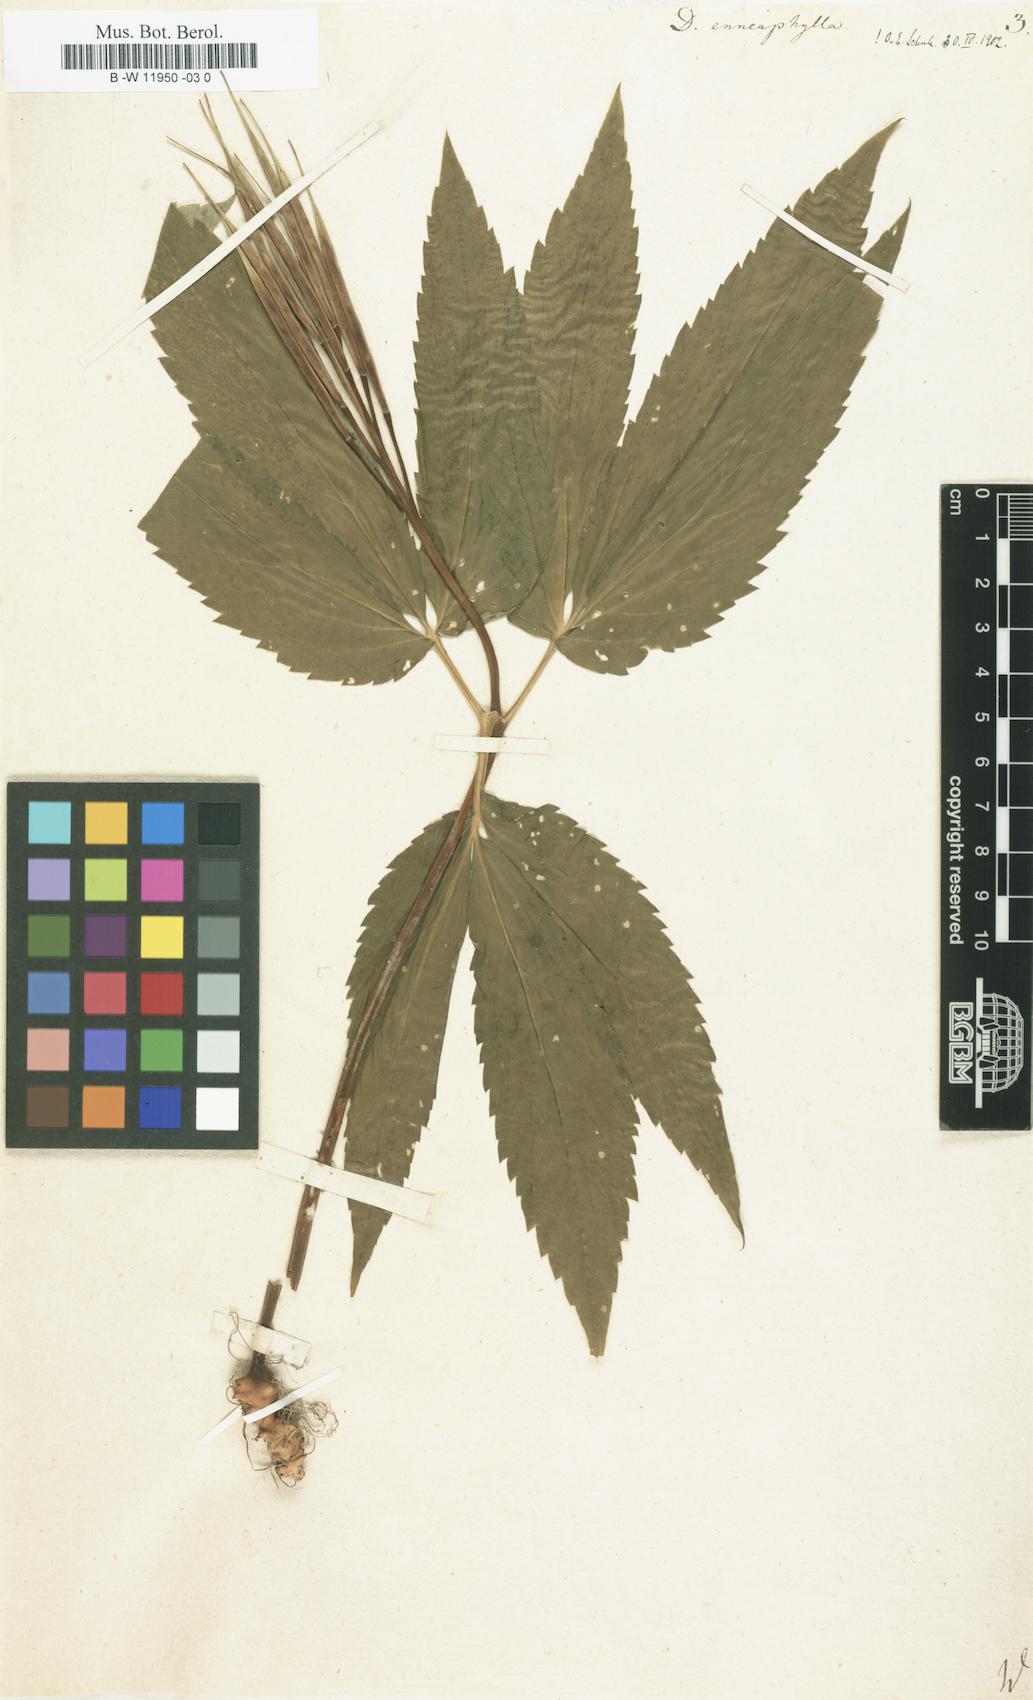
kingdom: Plantae
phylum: Tracheophyta
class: Magnoliopsida
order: Brassicales
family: Brassicaceae
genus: Cardamine
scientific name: Cardamine enneaphyllos
